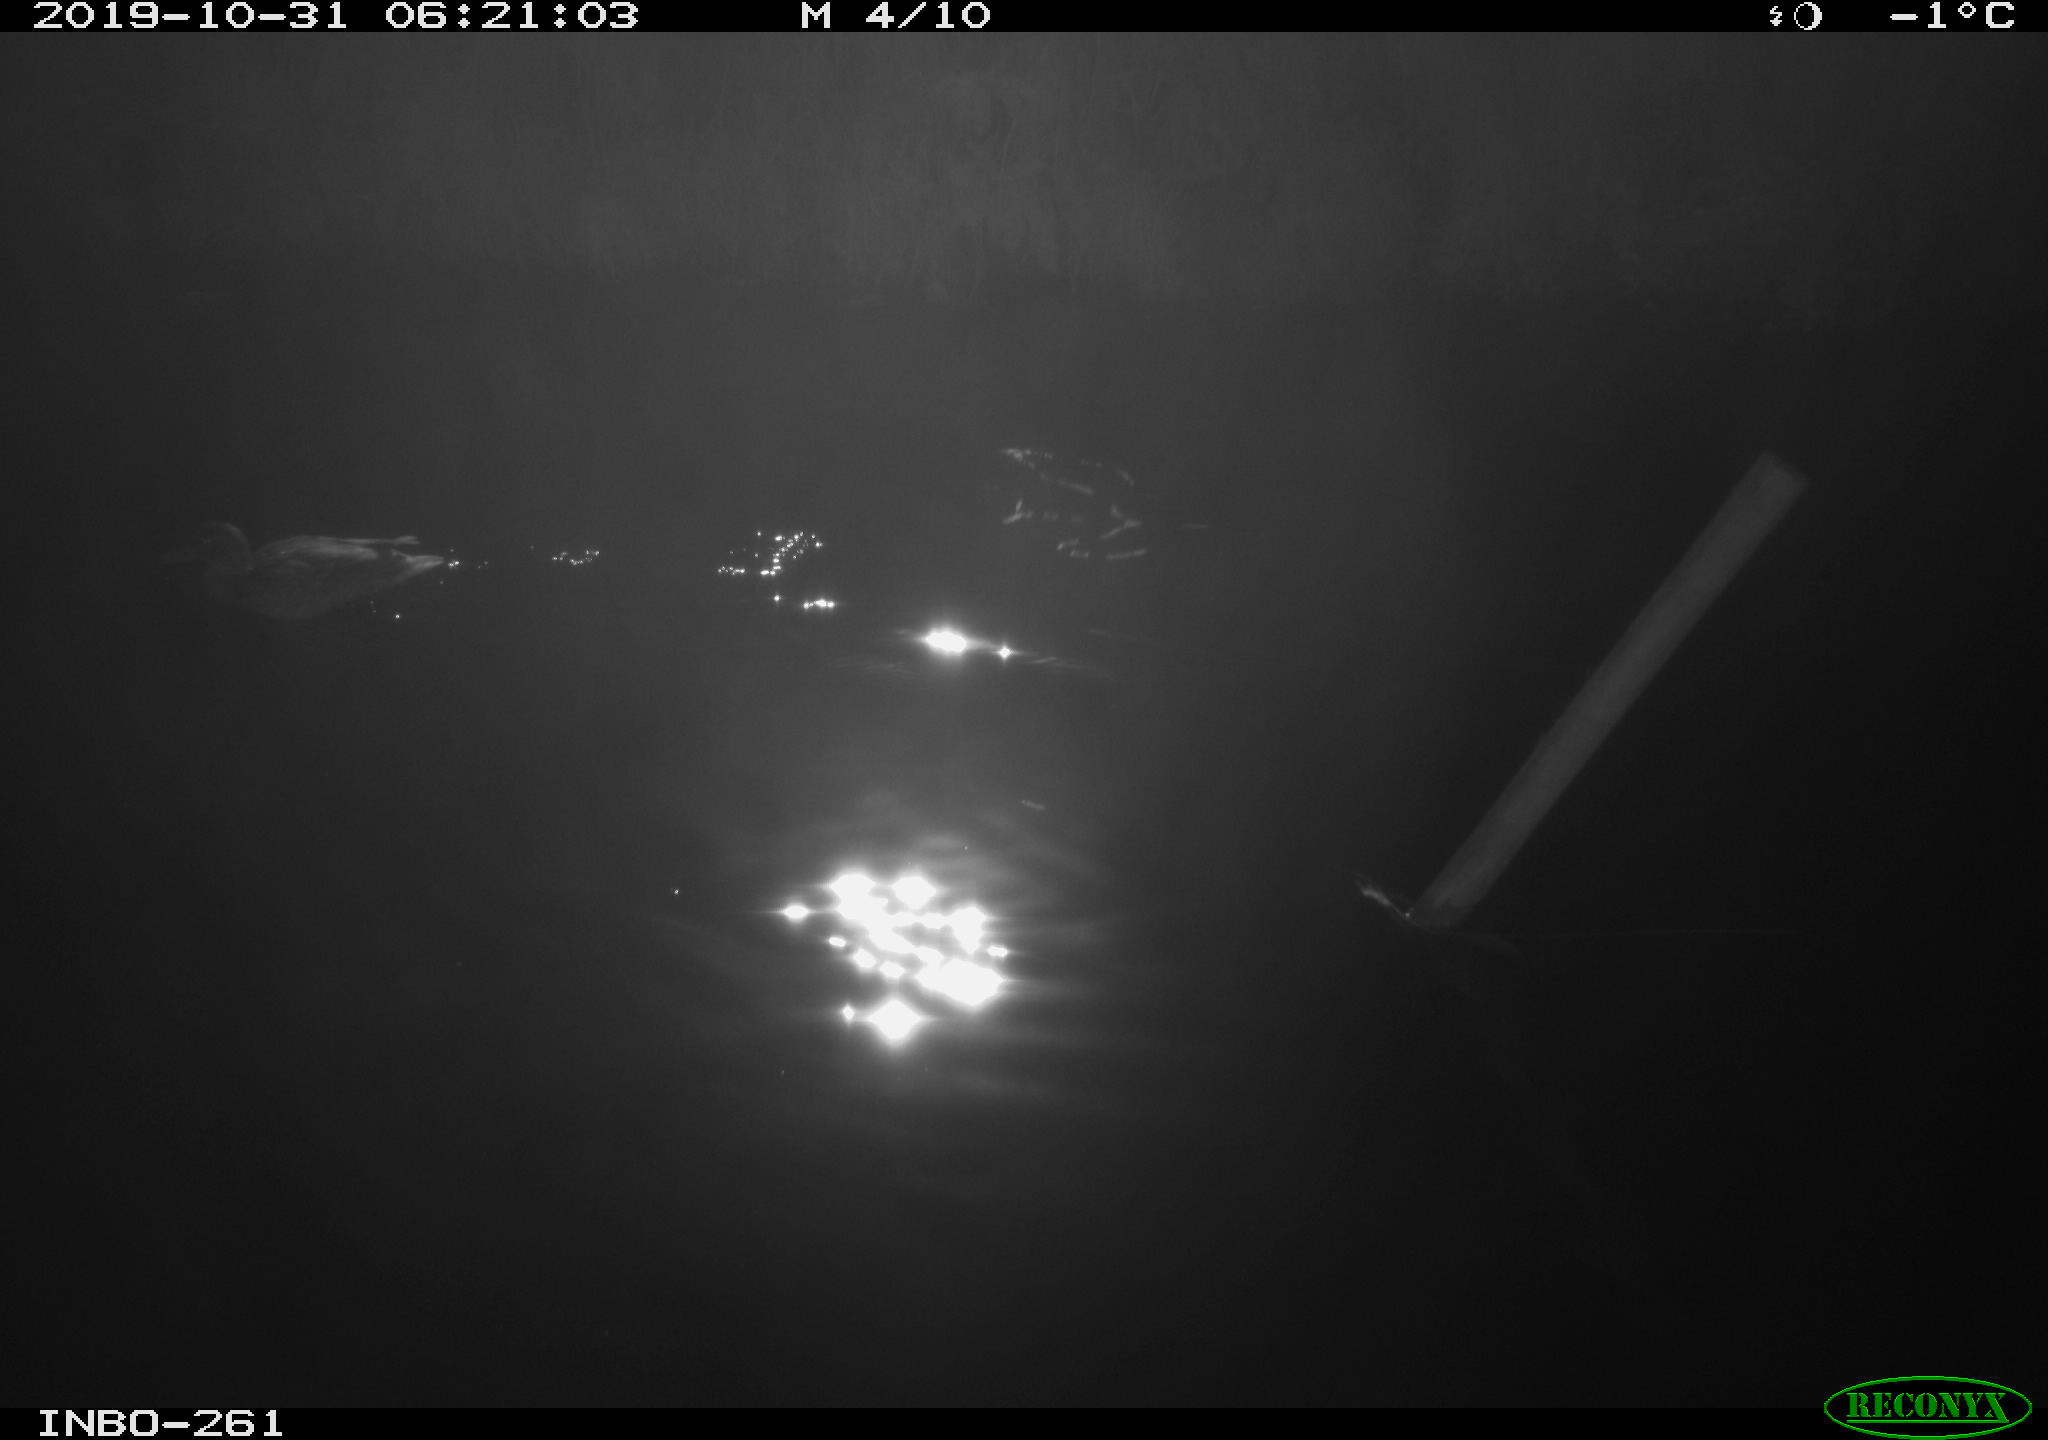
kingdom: Animalia
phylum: Chordata
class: Aves
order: Anseriformes
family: Anatidae
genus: Anas
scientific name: Anas platyrhynchos
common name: Mallard
